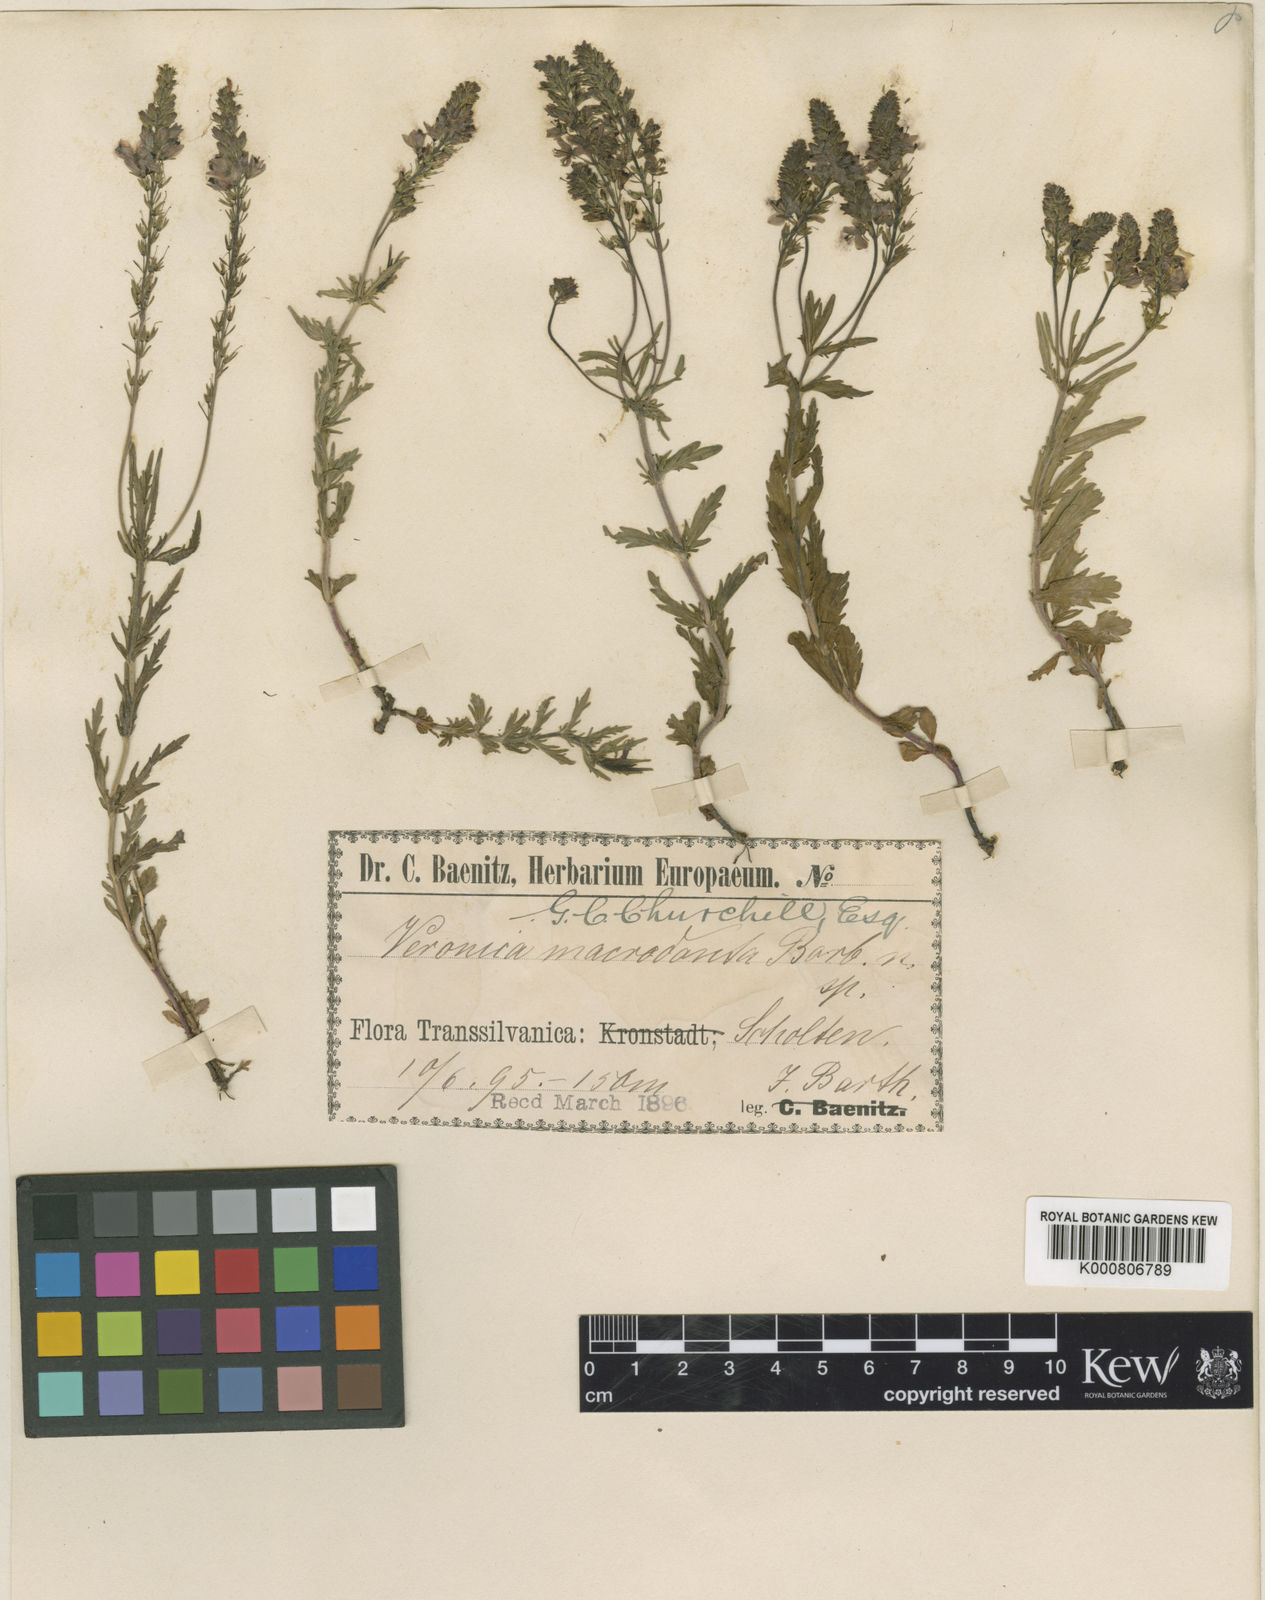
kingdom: Plantae
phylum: Tracheophyta
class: Magnoliopsida
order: Lamiales
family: Plantaginaceae
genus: Veronica
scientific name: Veronica teucrium
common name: Large speedwell
